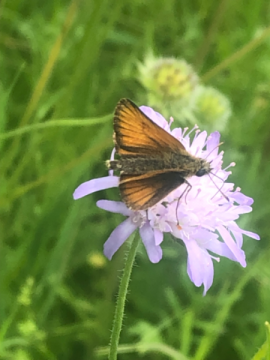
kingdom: Animalia
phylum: Arthropoda
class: Insecta
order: Lepidoptera
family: Hesperiidae
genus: Thymelicus
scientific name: Thymelicus lineola
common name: European Skipper
